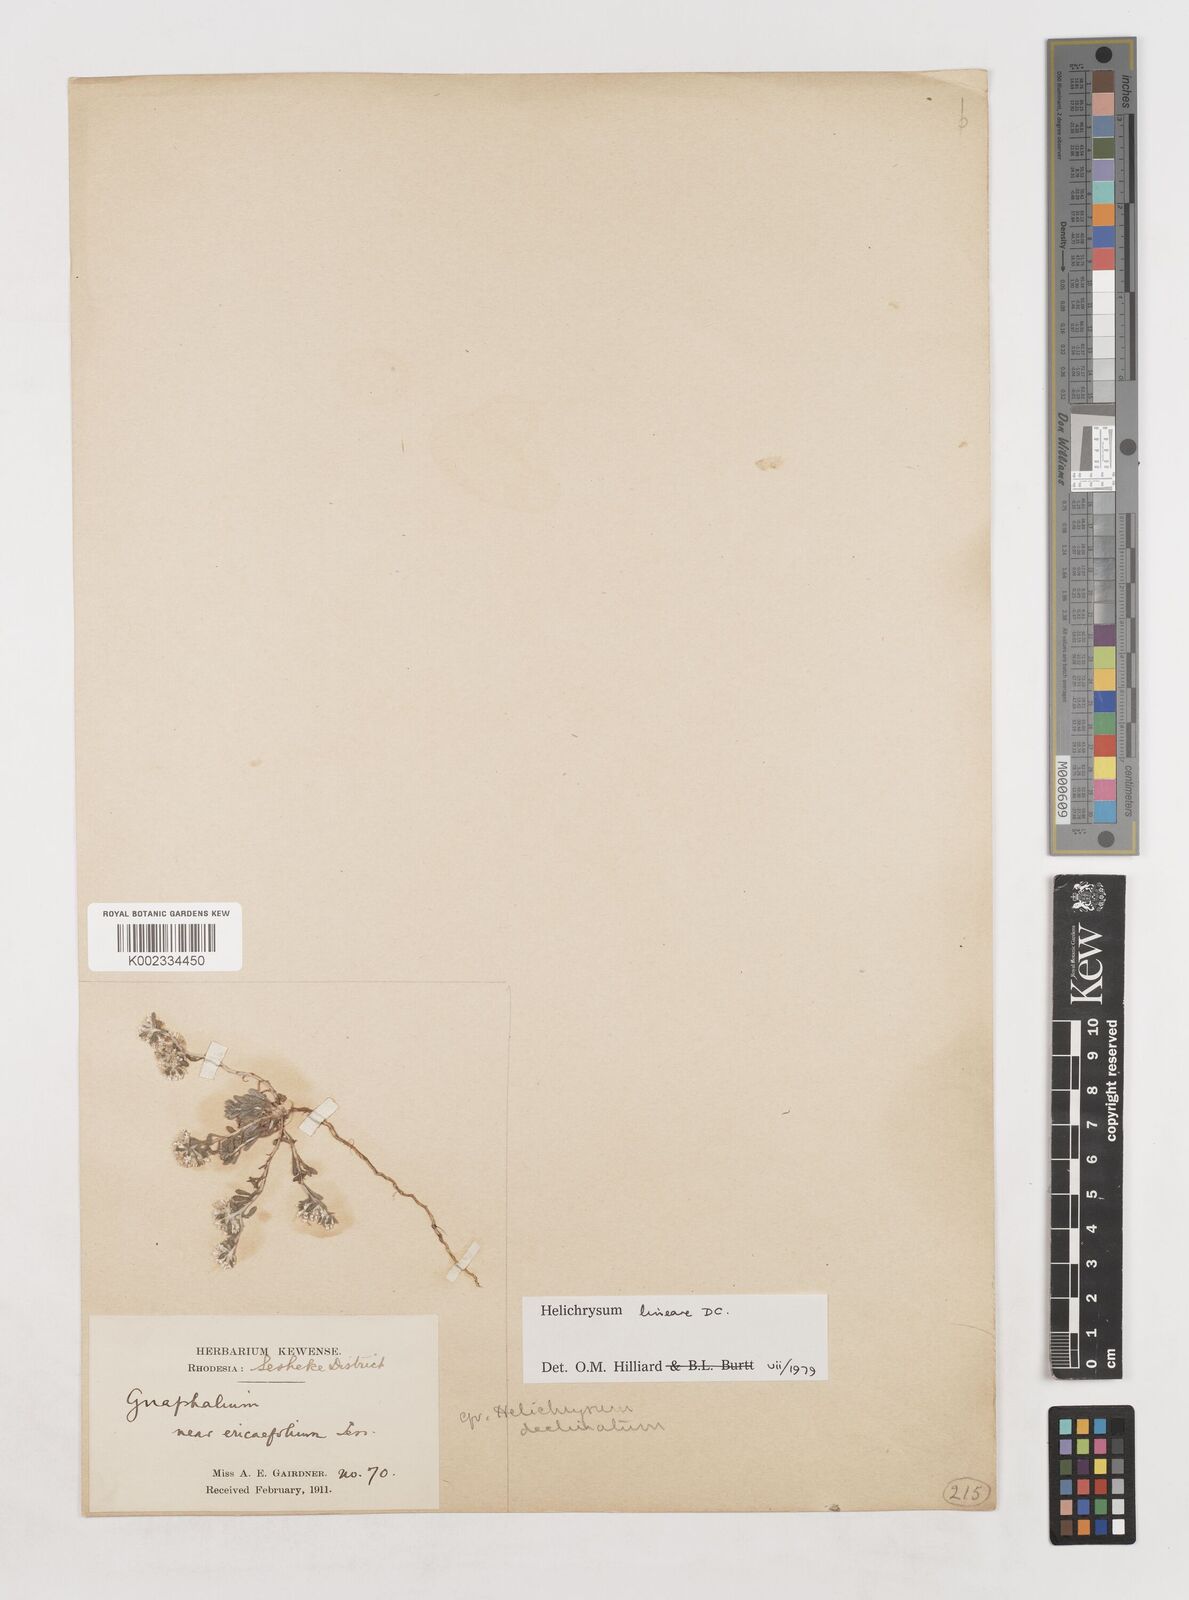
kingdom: Plantae
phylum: Tracheophyta
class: Magnoliopsida
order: Asterales
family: Asteraceae
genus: Helichrysum
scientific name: Helichrysum lineare
